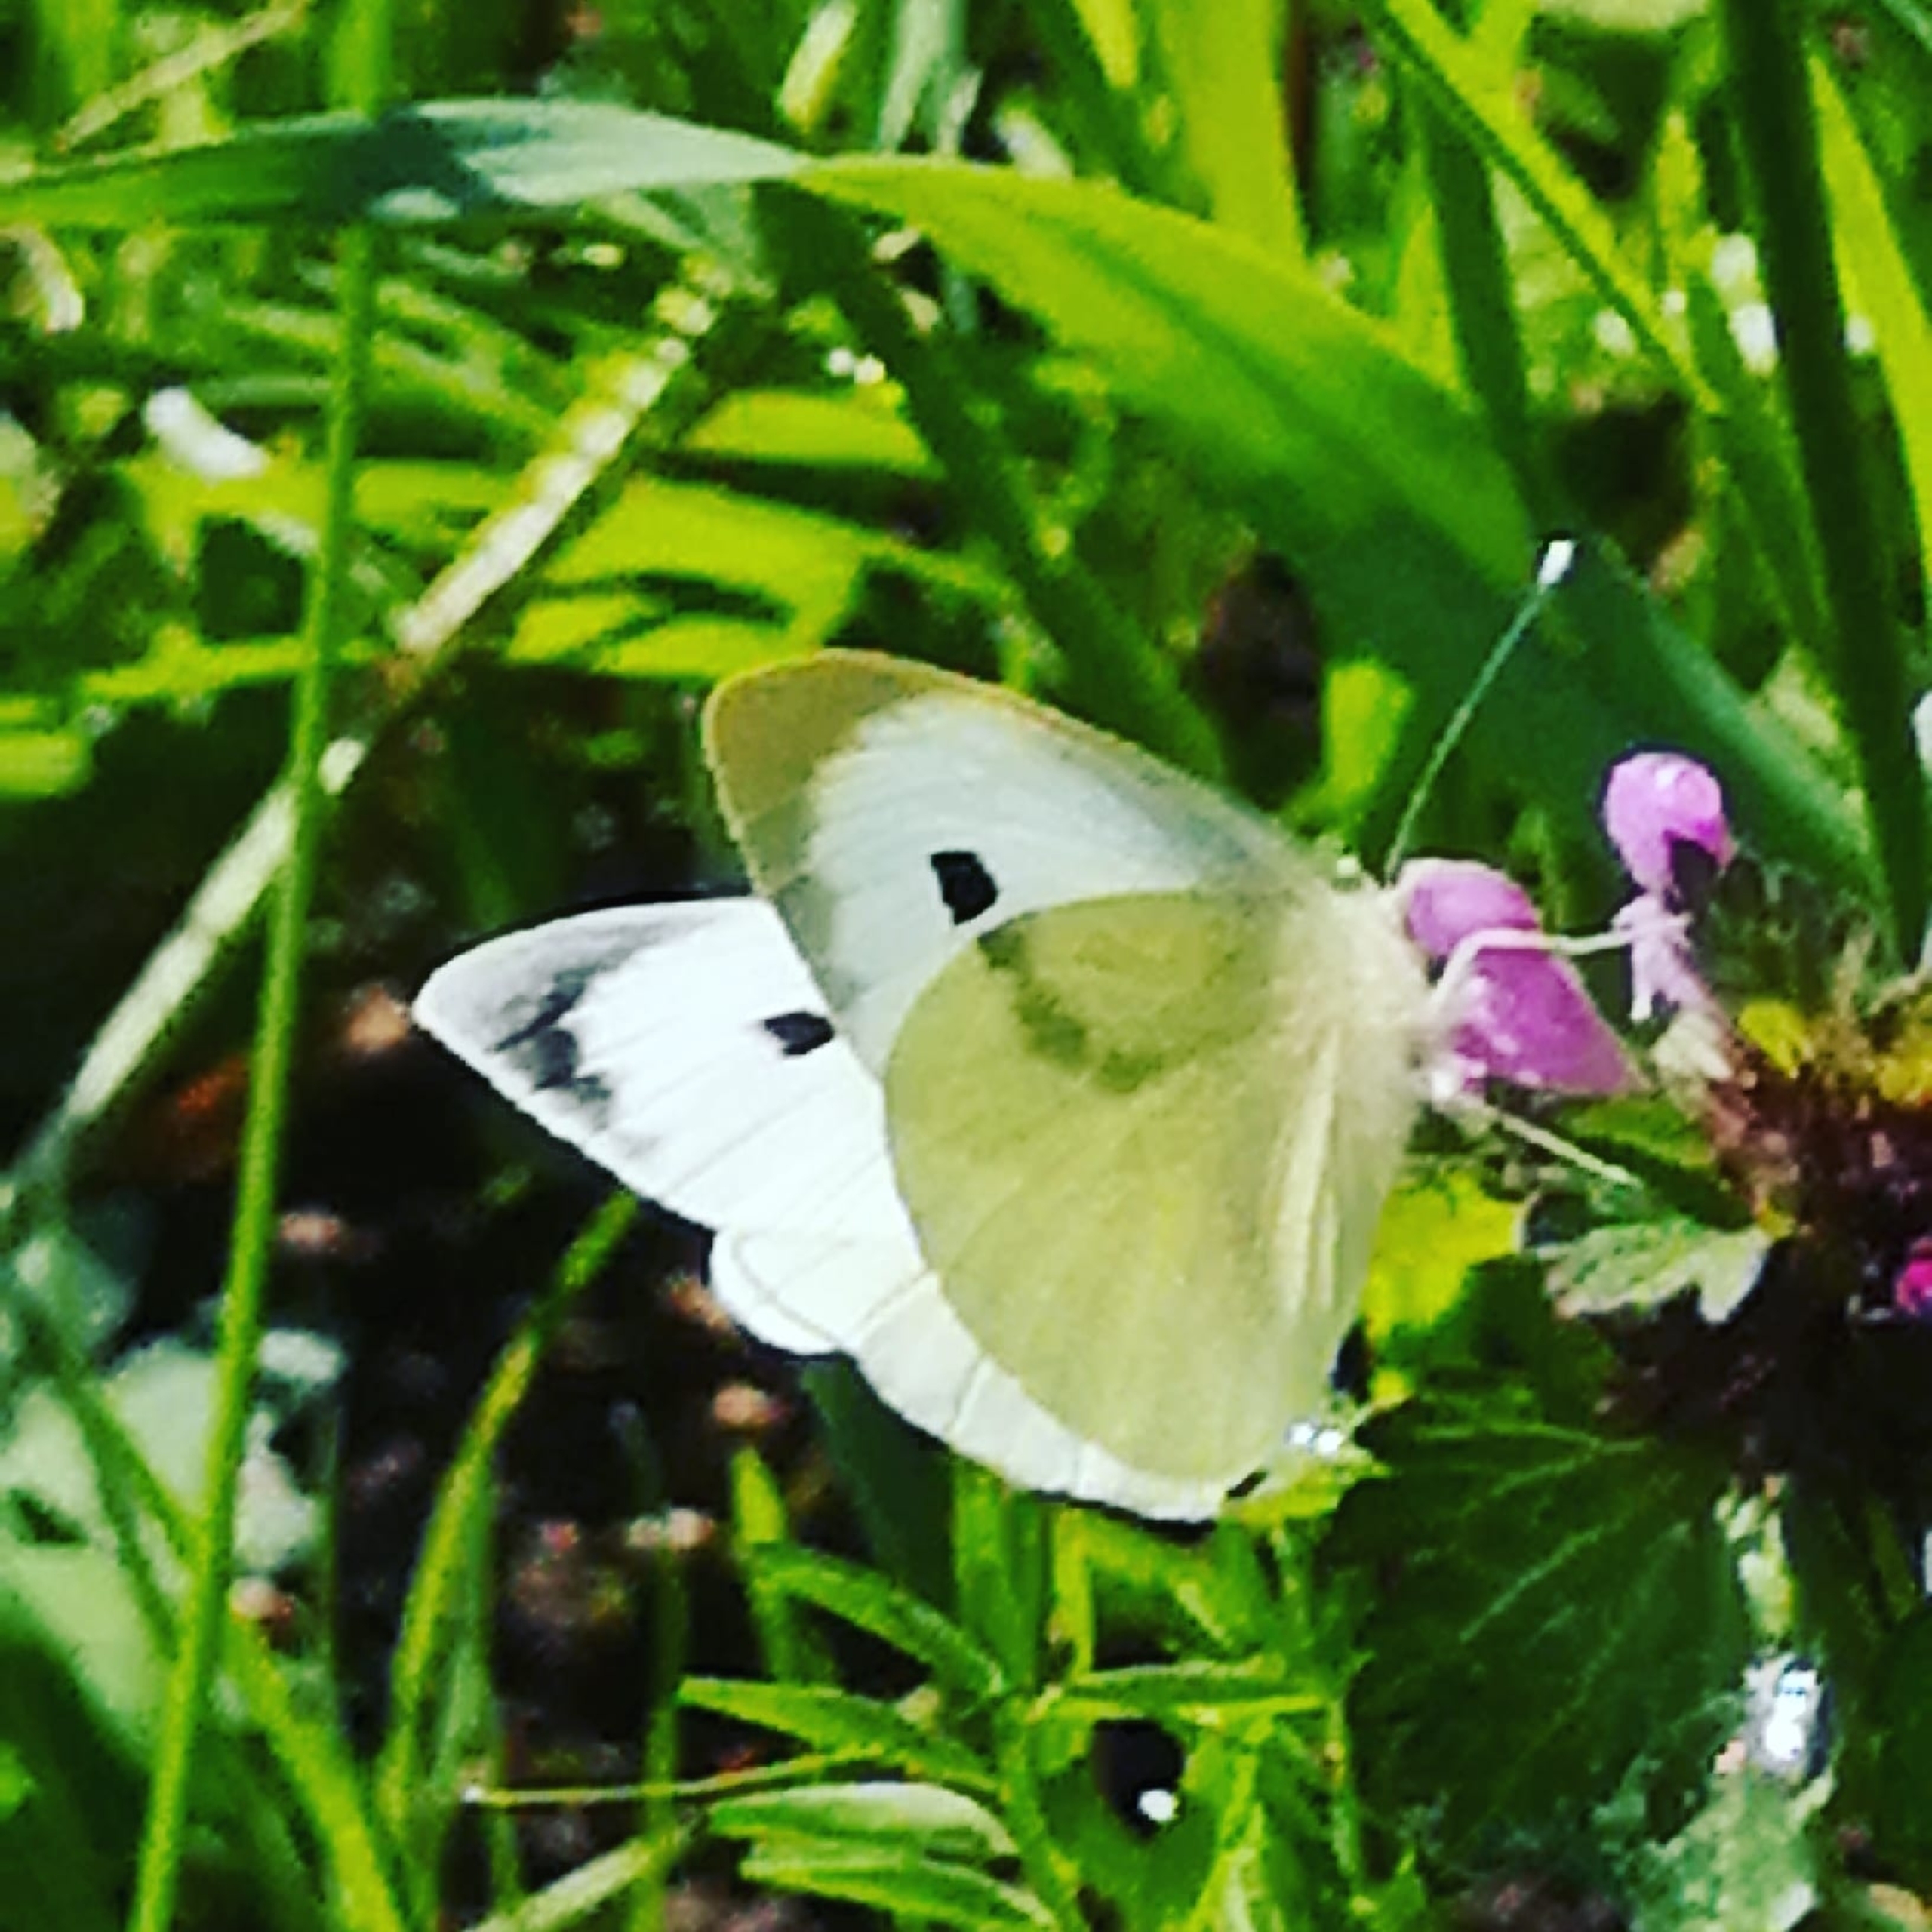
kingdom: Animalia
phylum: Arthropoda
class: Insecta
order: Lepidoptera
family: Pieridae
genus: Pieris
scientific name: Pieris brassicae
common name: Stor kålsommerfugl
